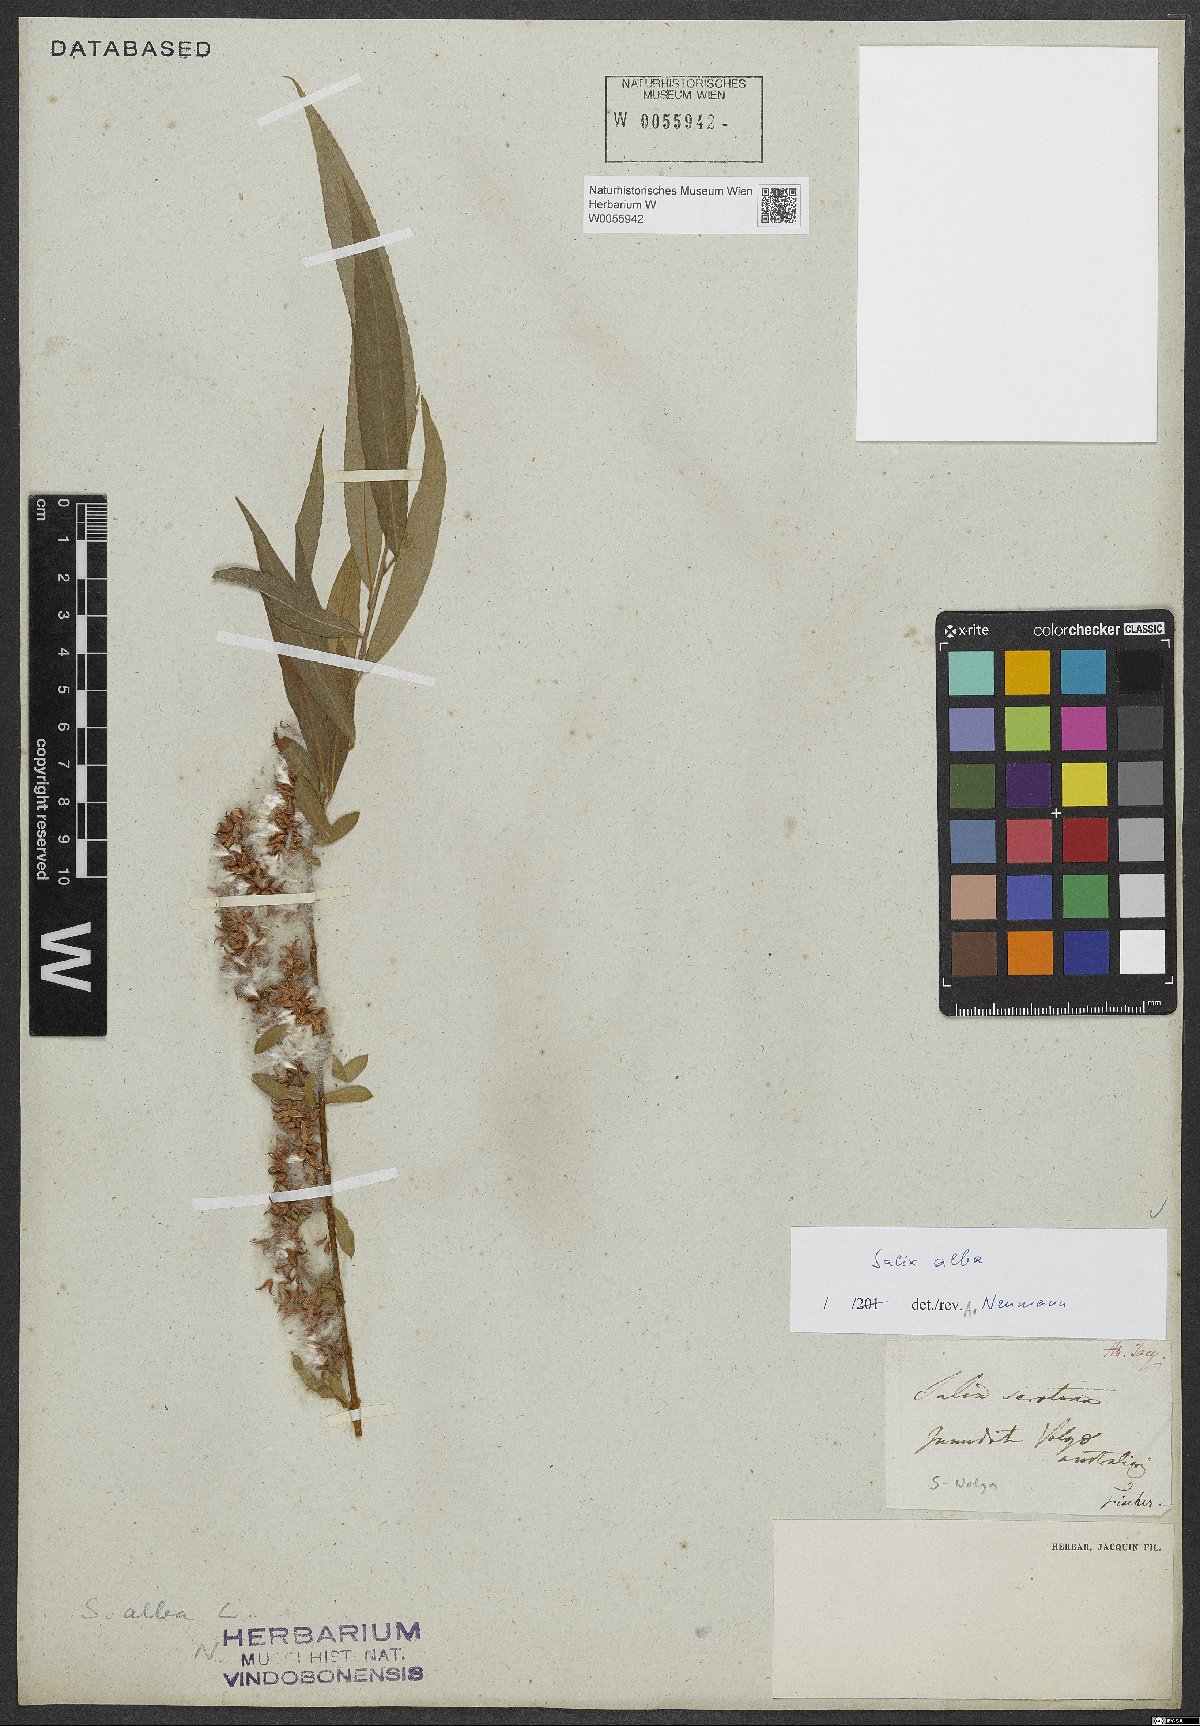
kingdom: Plantae
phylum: Tracheophyta
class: Magnoliopsida
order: Malpighiales
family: Salicaceae
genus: Salix
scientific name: Salix alba
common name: White willow
